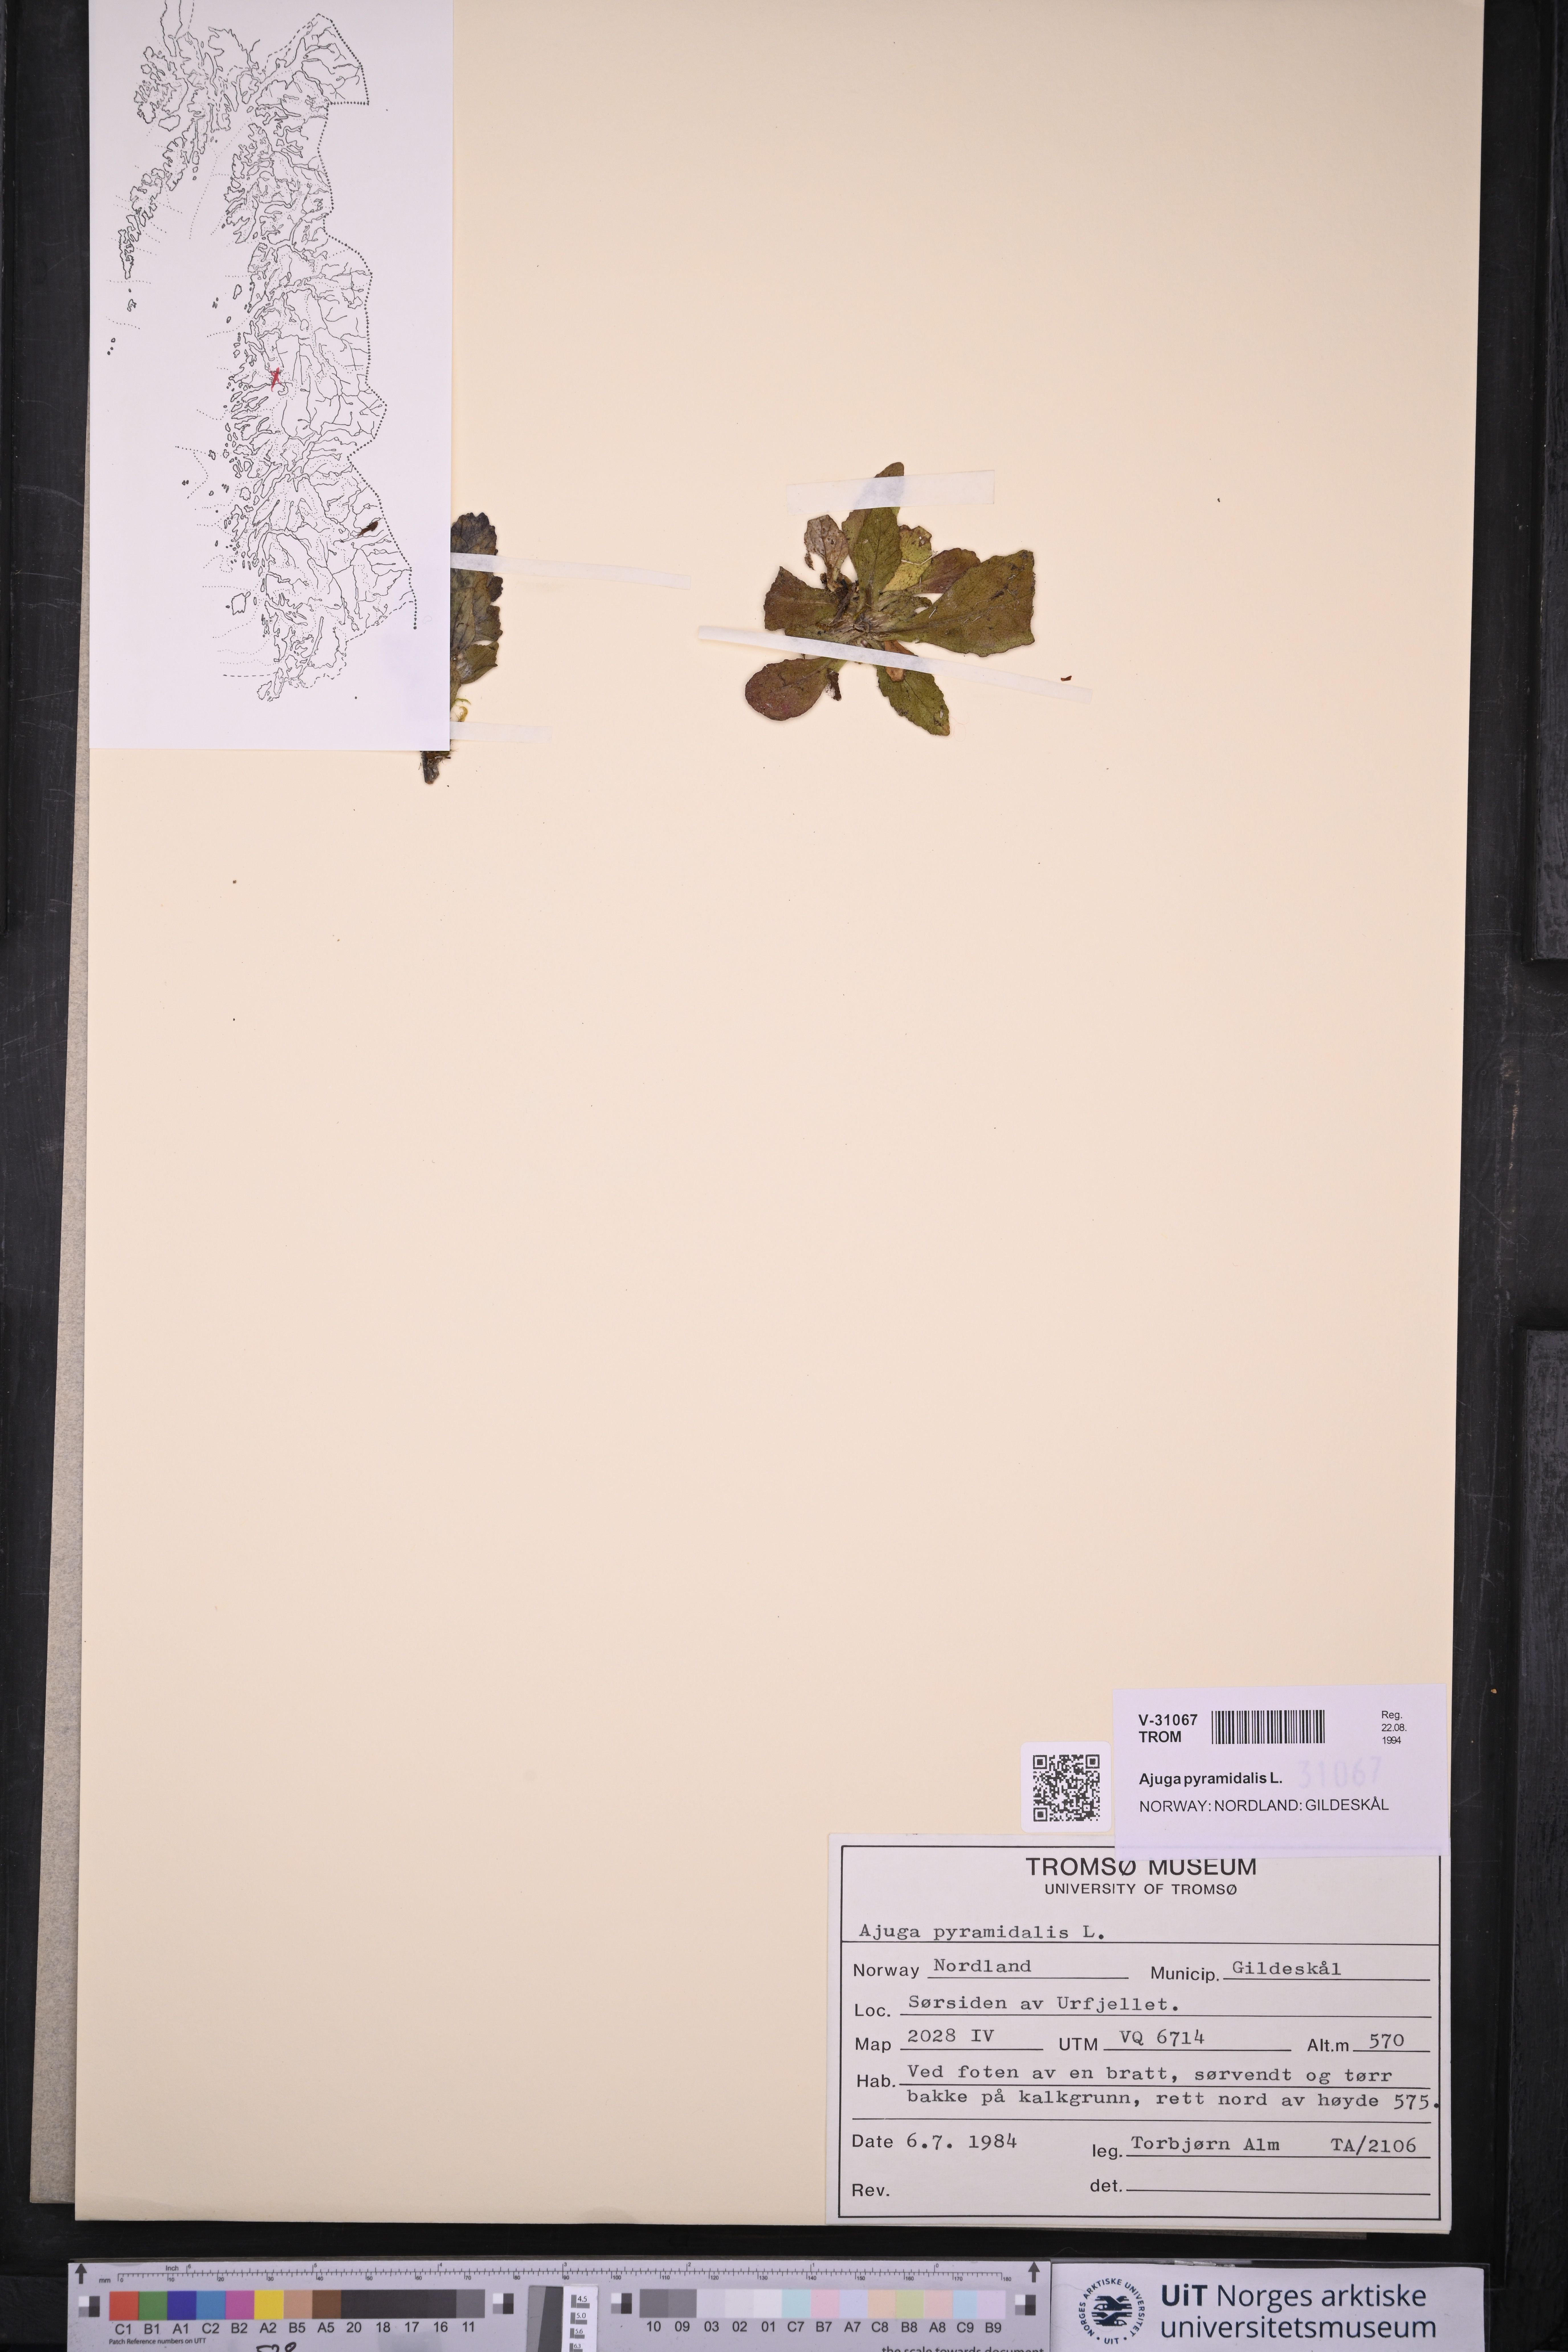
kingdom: Plantae
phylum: Tracheophyta
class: Magnoliopsida
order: Lamiales
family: Lamiaceae
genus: Ajuga
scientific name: Ajuga pyramidalis
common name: Pyramid bugle
